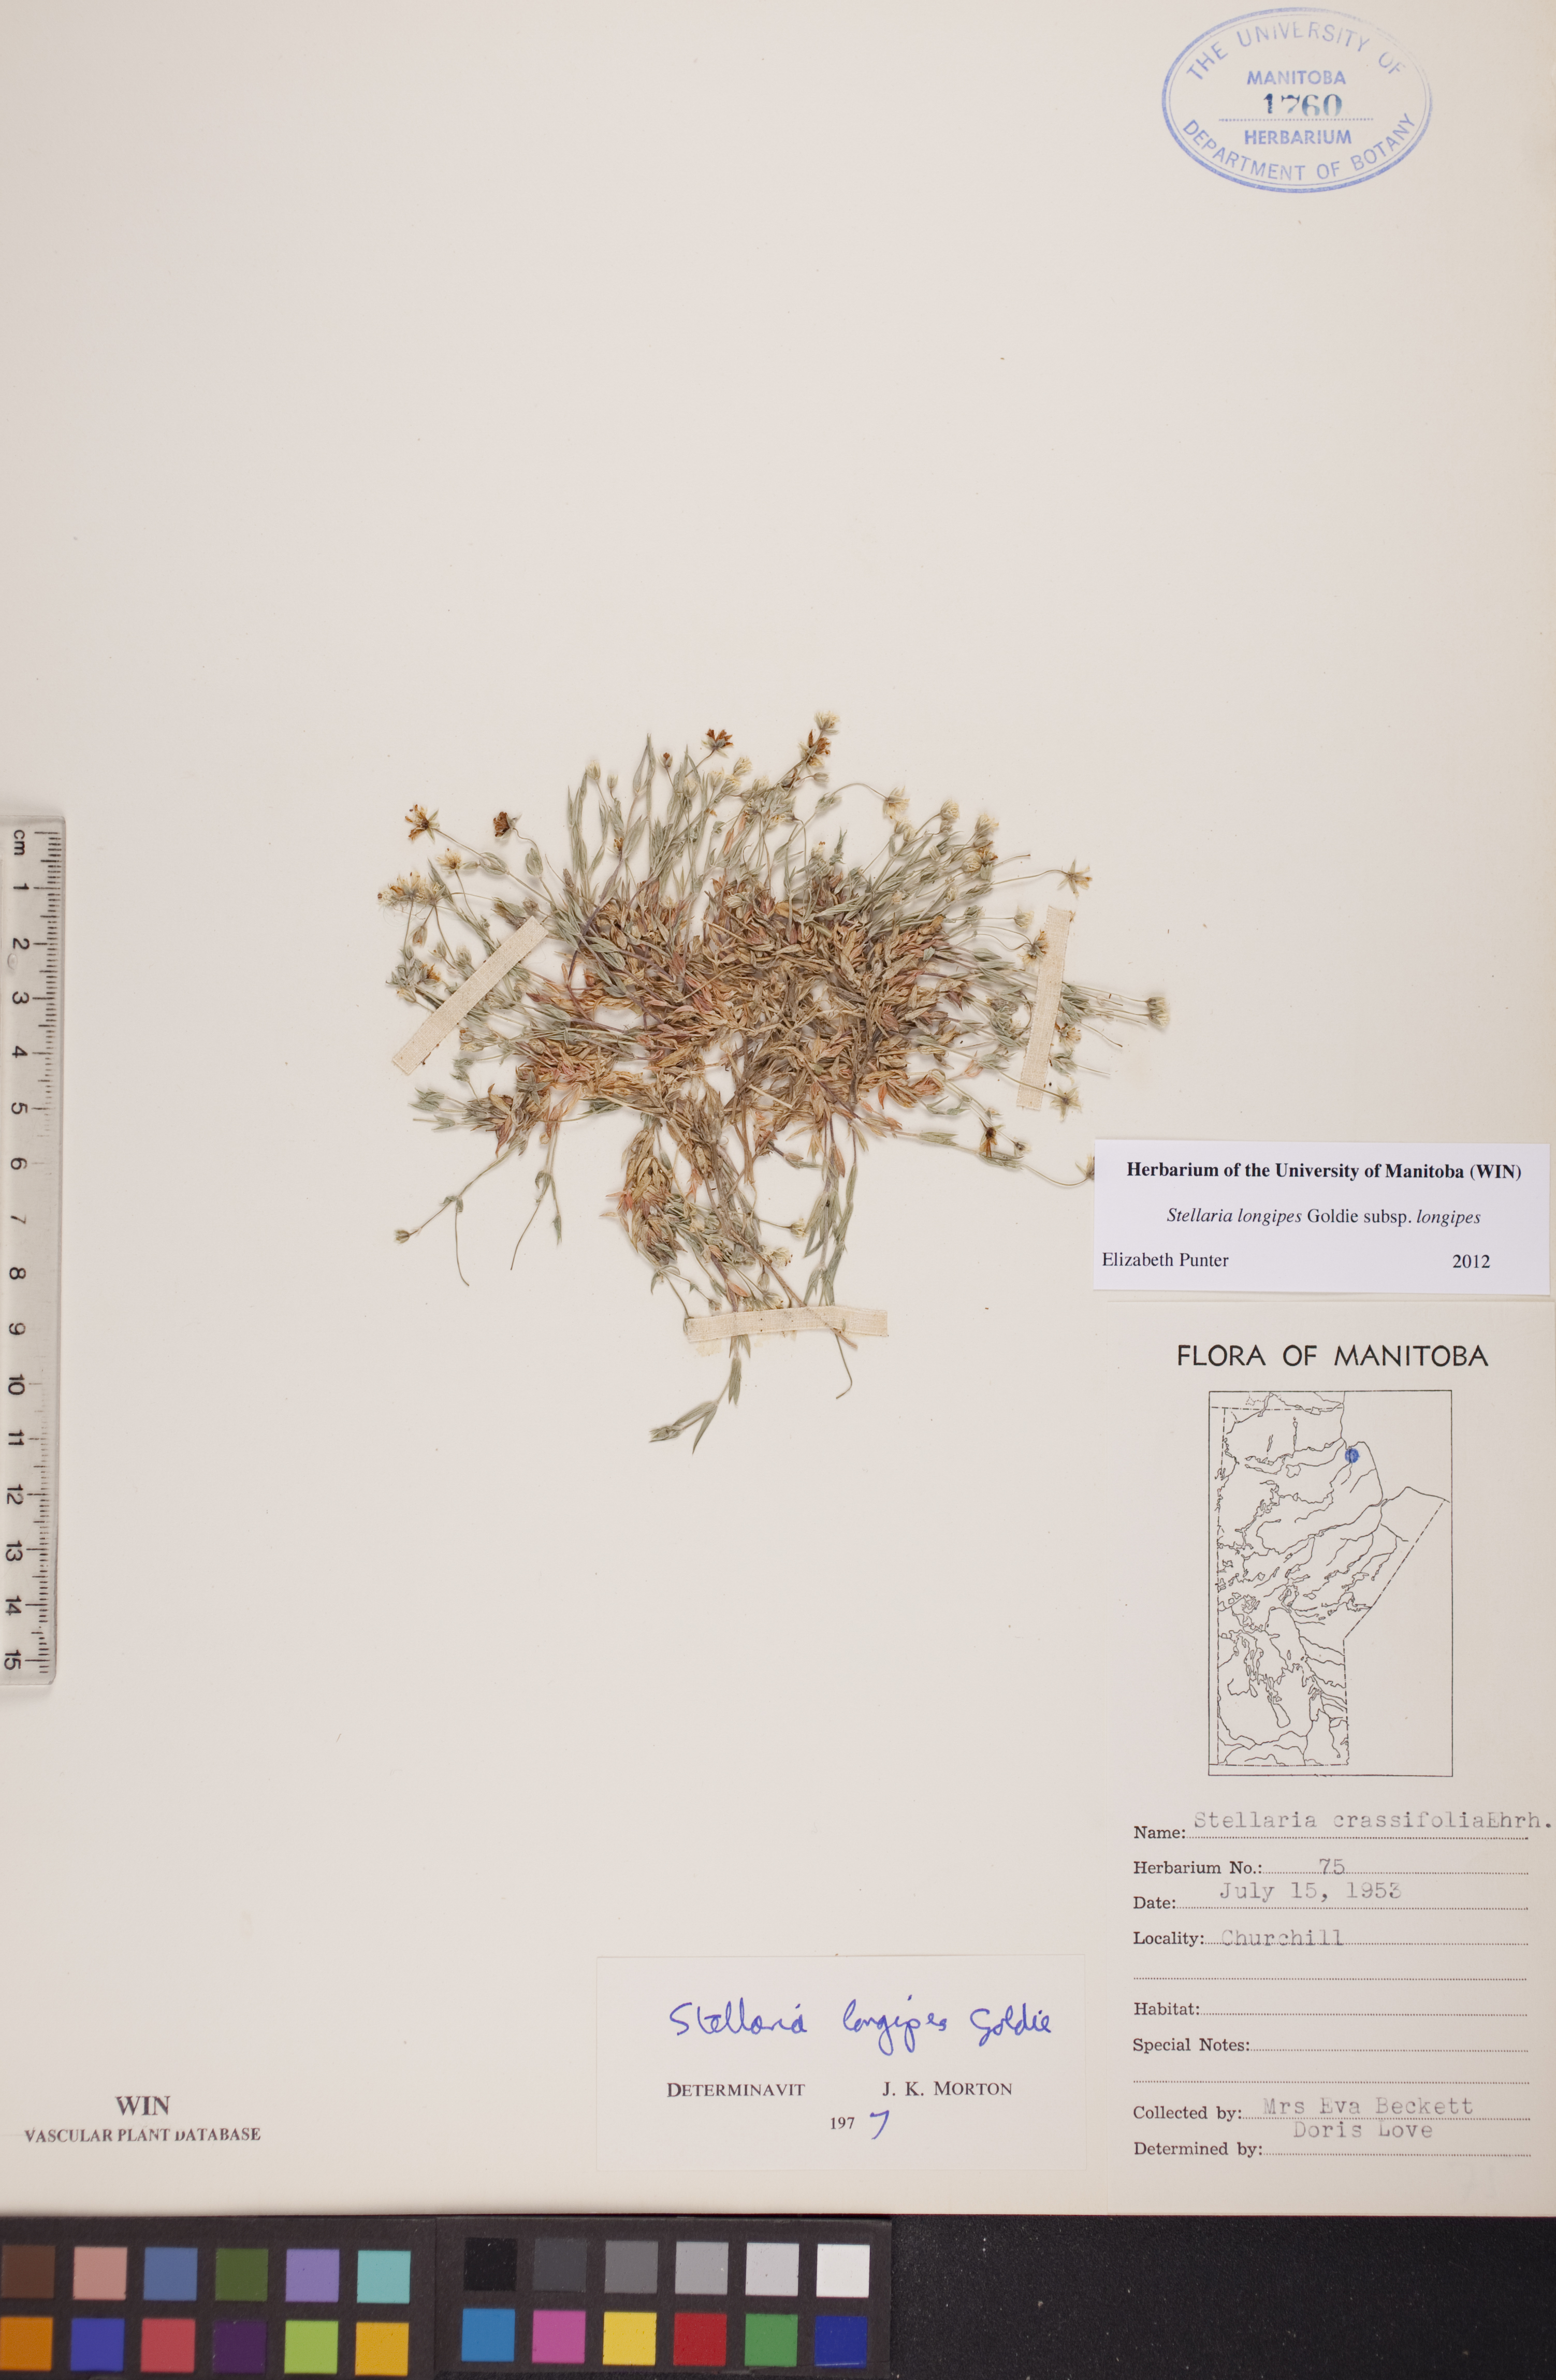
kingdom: Plantae
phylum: Tracheophyta
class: Magnoliopsida
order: Caryophyllales
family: Caryophyllaceae
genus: Stellaria
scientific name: Stellaria longipes
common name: Goldie's starwort
